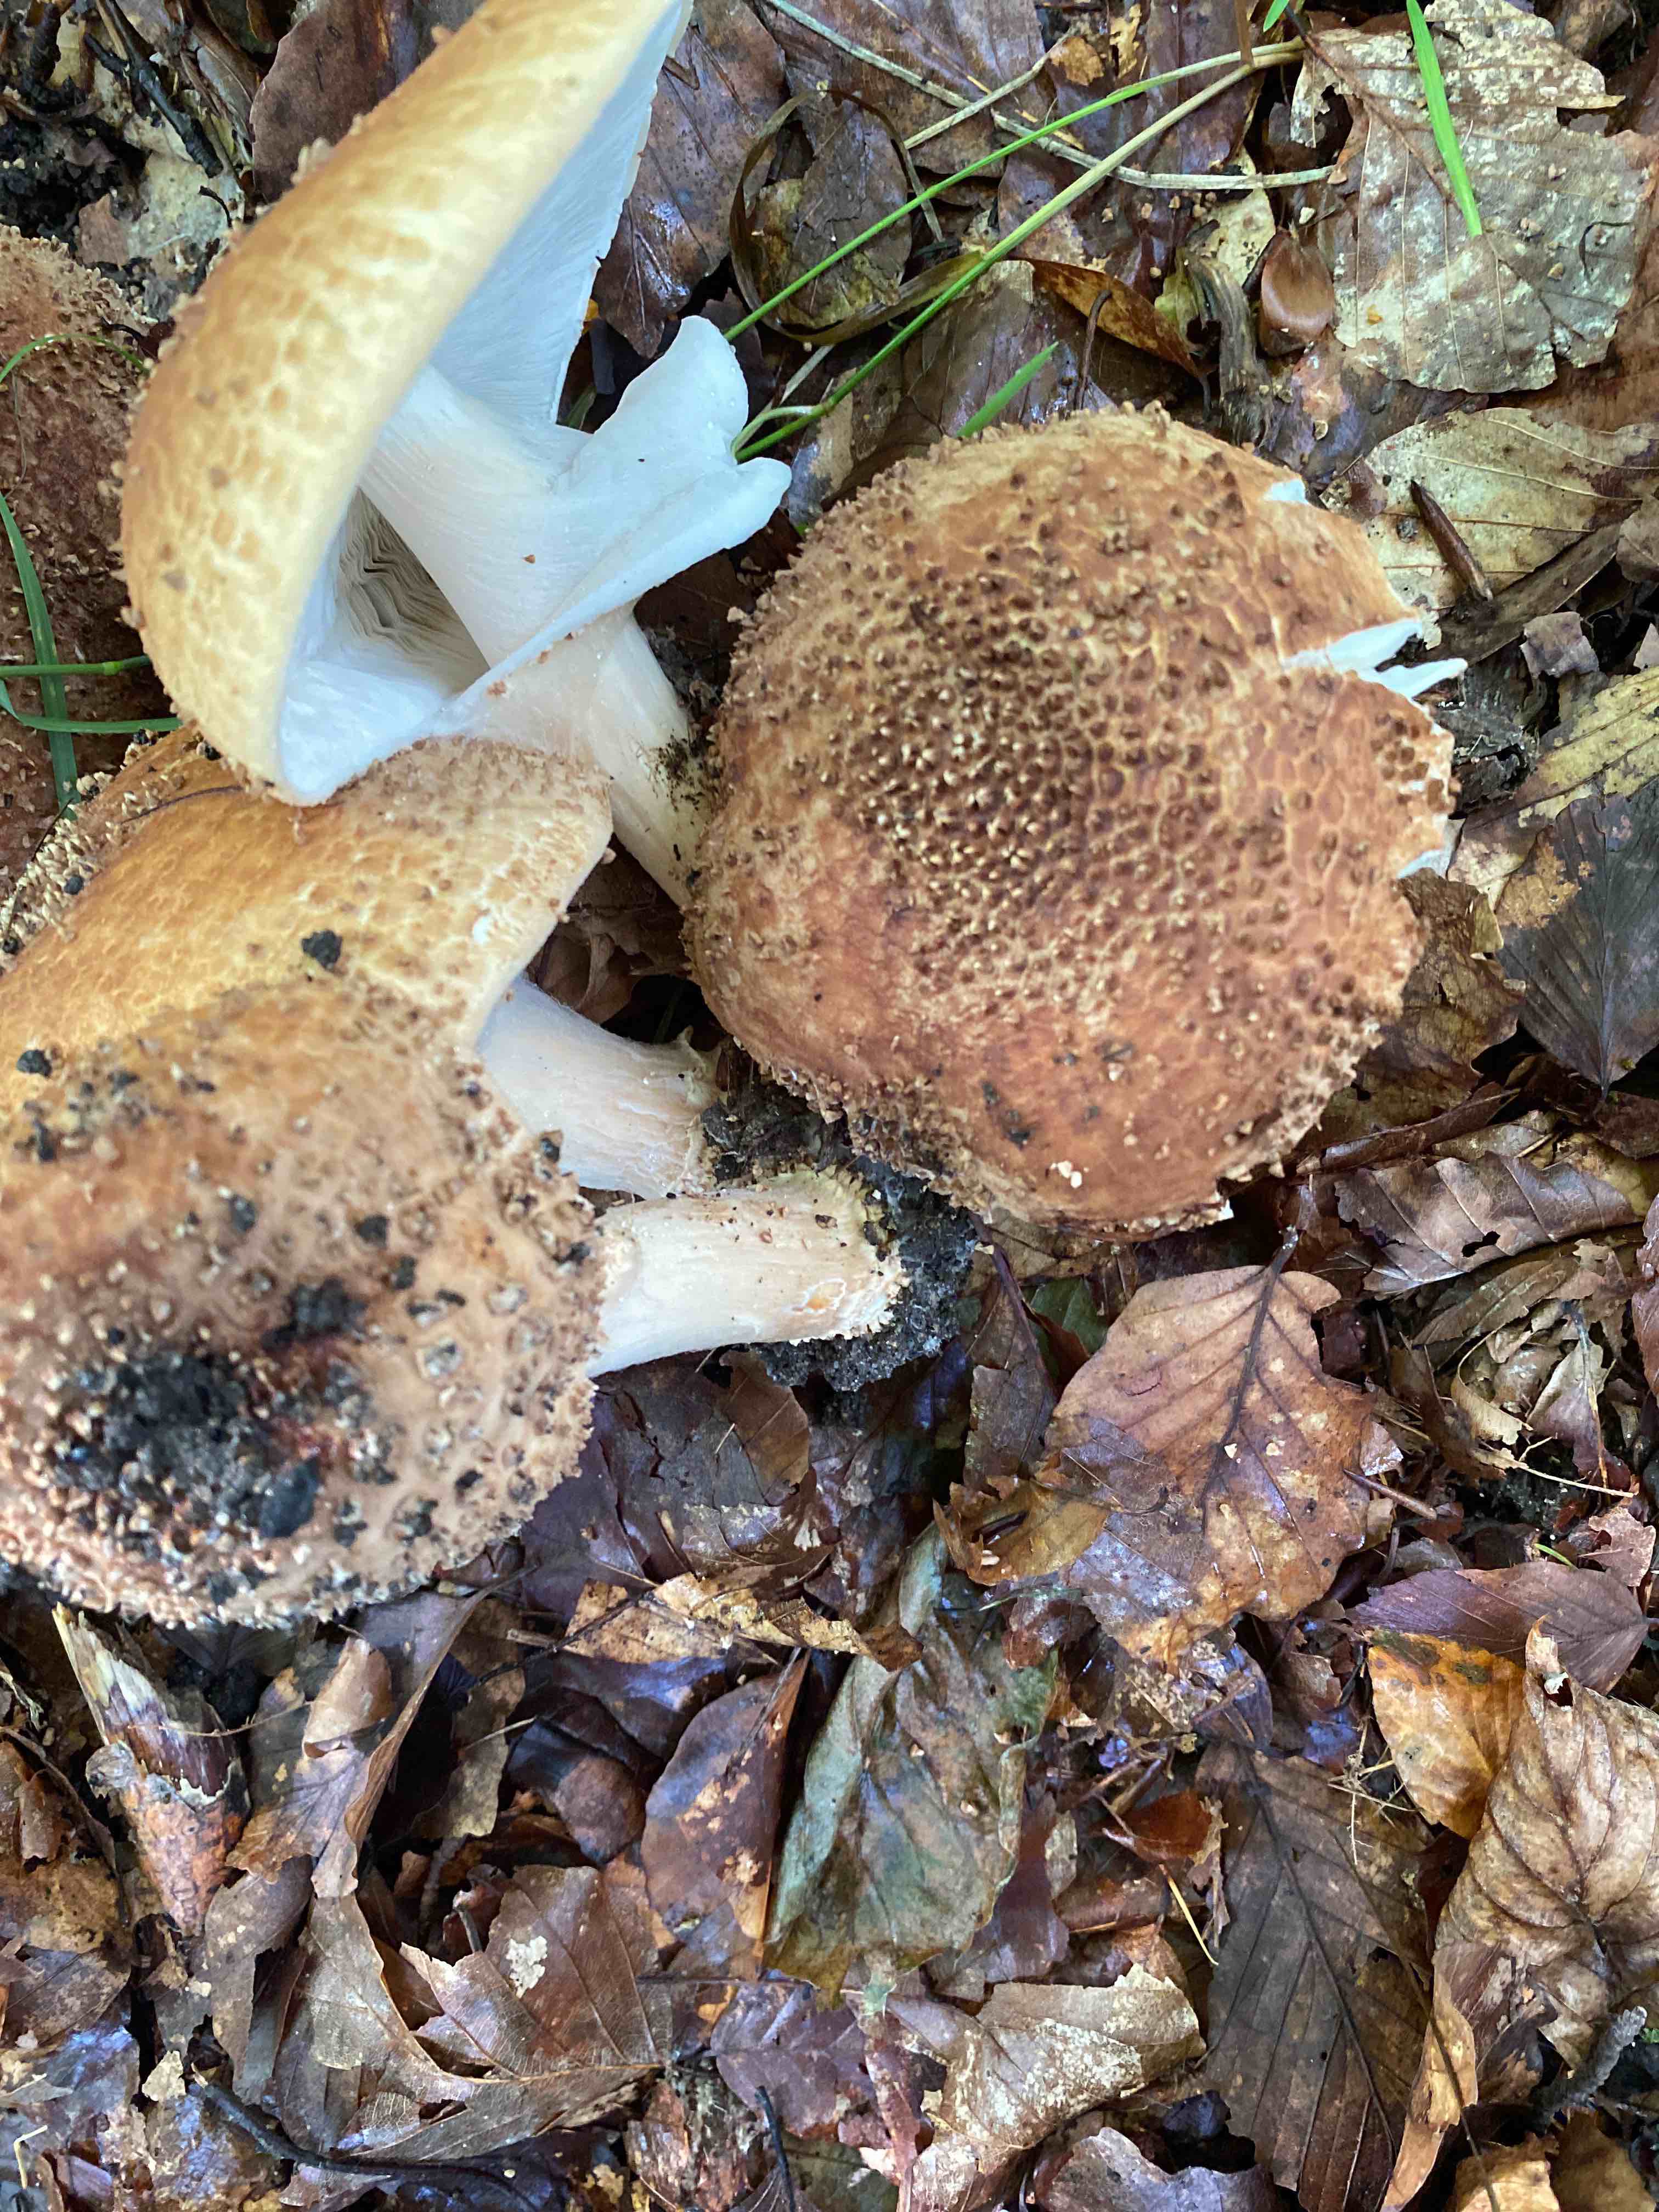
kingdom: Fungi
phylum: Basidiomycota
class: Agaricomycetes
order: Agaricales
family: Agaricaceae
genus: Echinoderma
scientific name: Echinoderma asperum
